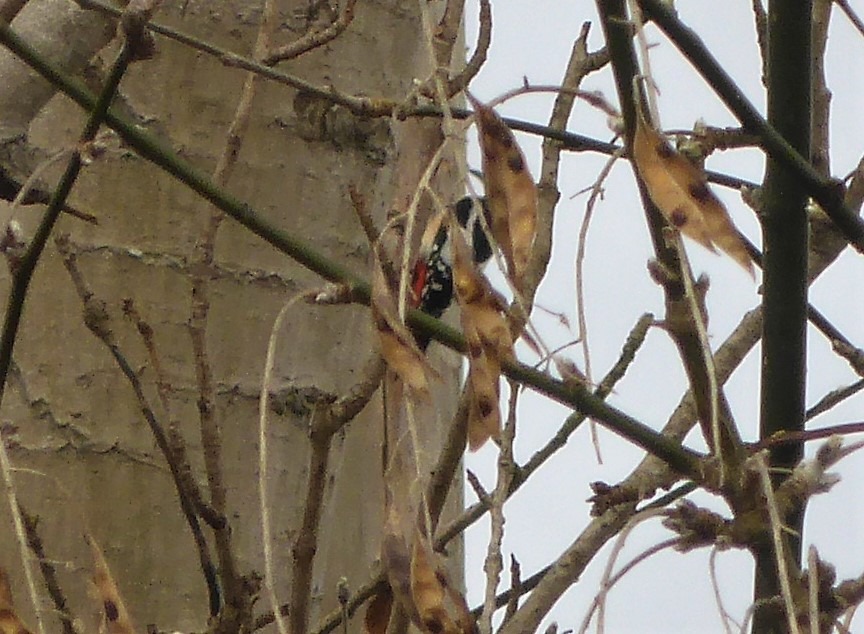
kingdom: Animalia
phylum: Chordata
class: Aves
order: Piciformes
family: Picidae
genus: Dendrocopos
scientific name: Dendrocopos major
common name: Stor flagspætte
